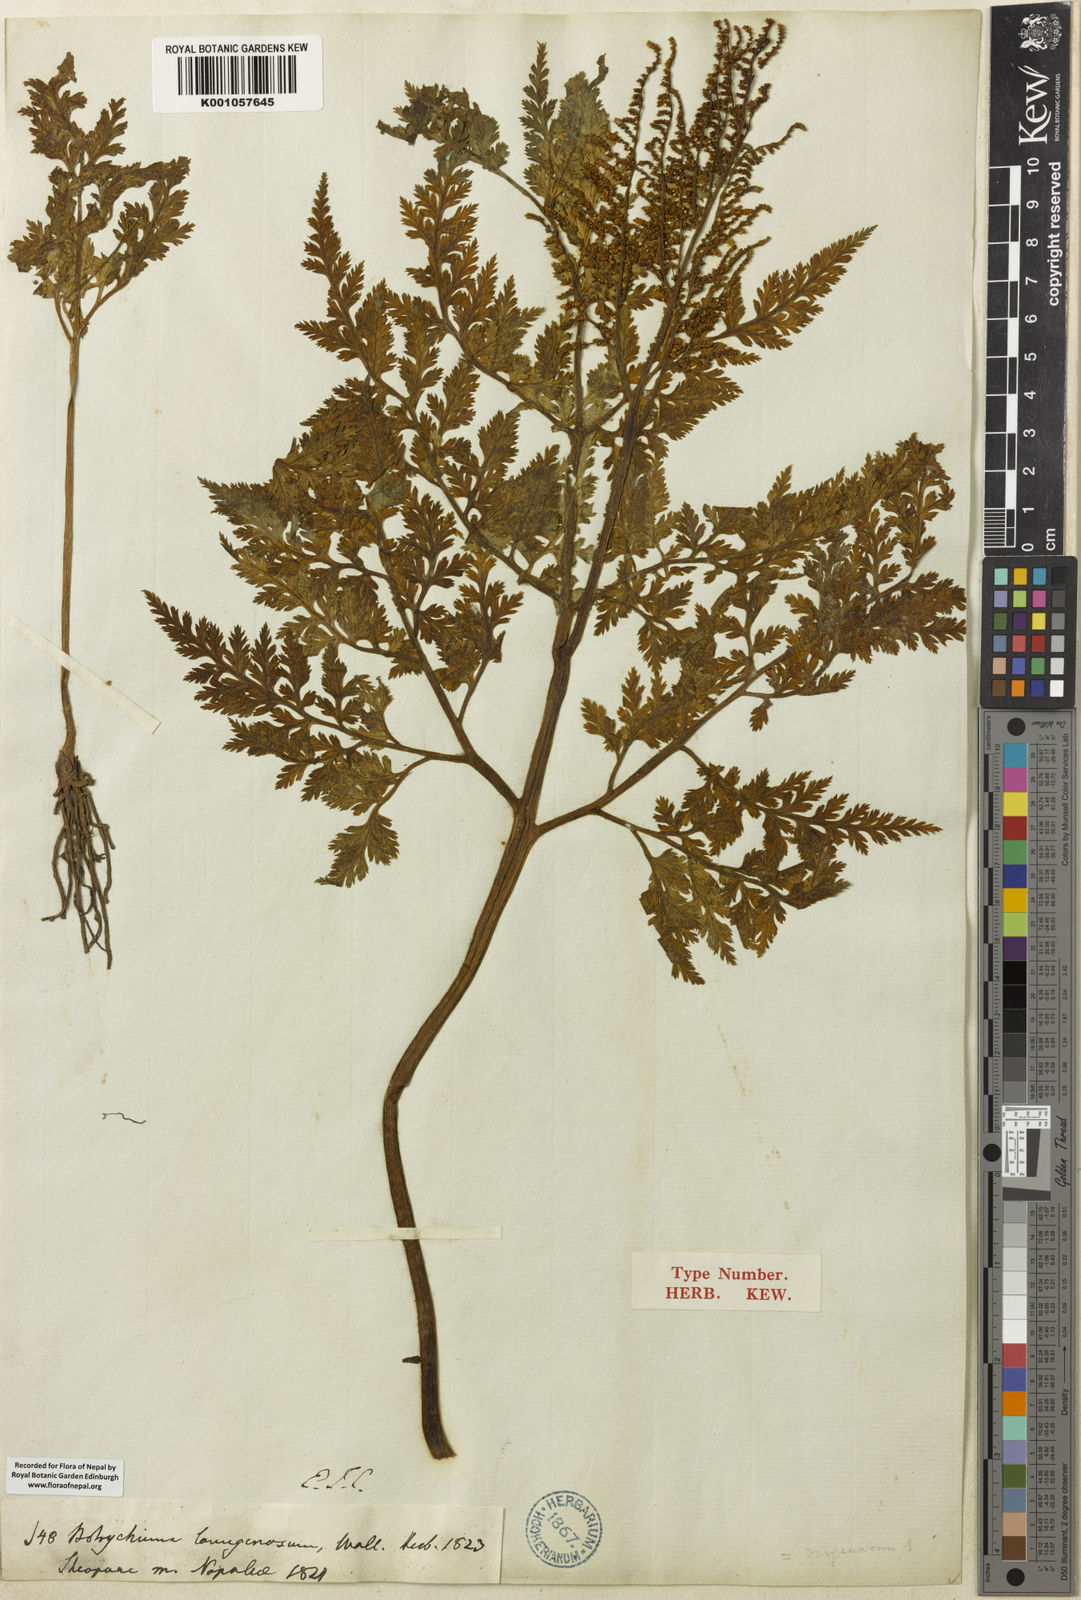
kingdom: Plantae
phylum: Tracheophyta
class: Polypodiopsida
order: Ophioglossales
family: Ophioglossaceae
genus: Japanobotrychum
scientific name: Japanobotrychum lanuginosum
